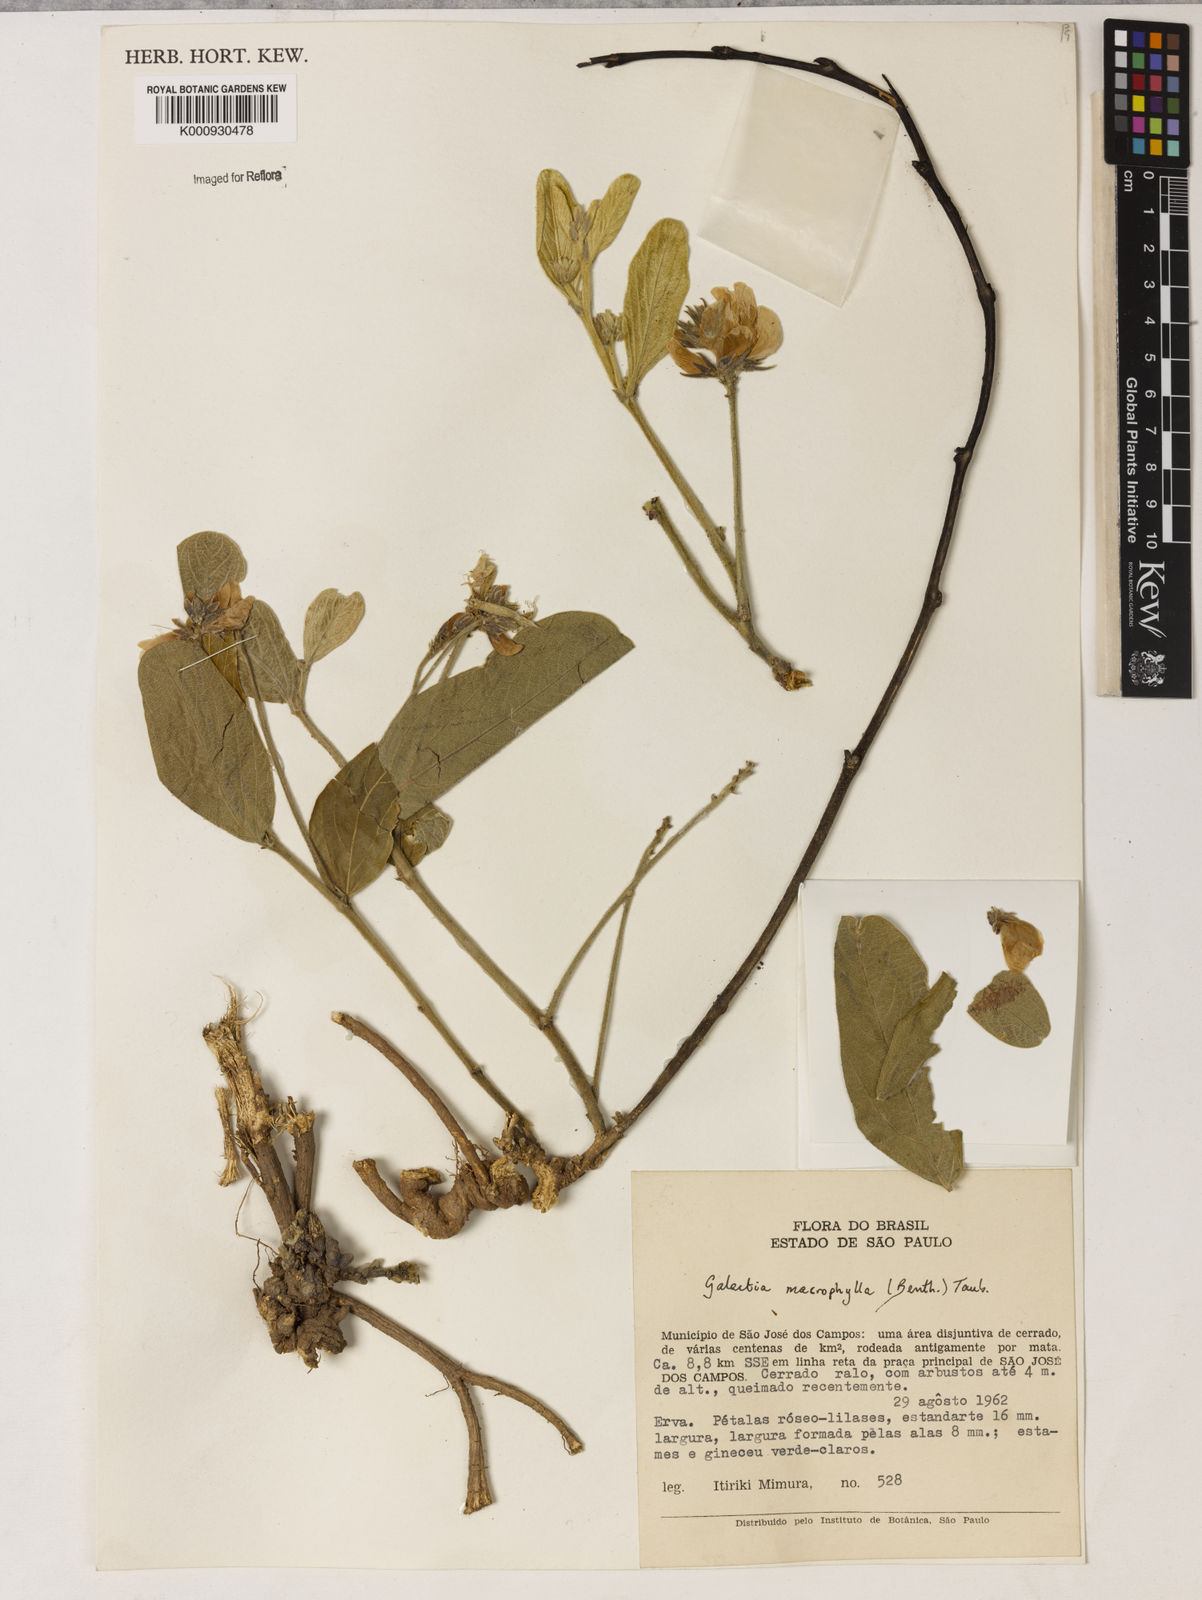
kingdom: Plantae
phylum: Tracheophyta
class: Magnoliopsida
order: Fabales
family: Fabaceae
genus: Cerradicola
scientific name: Cerradicola boavista
